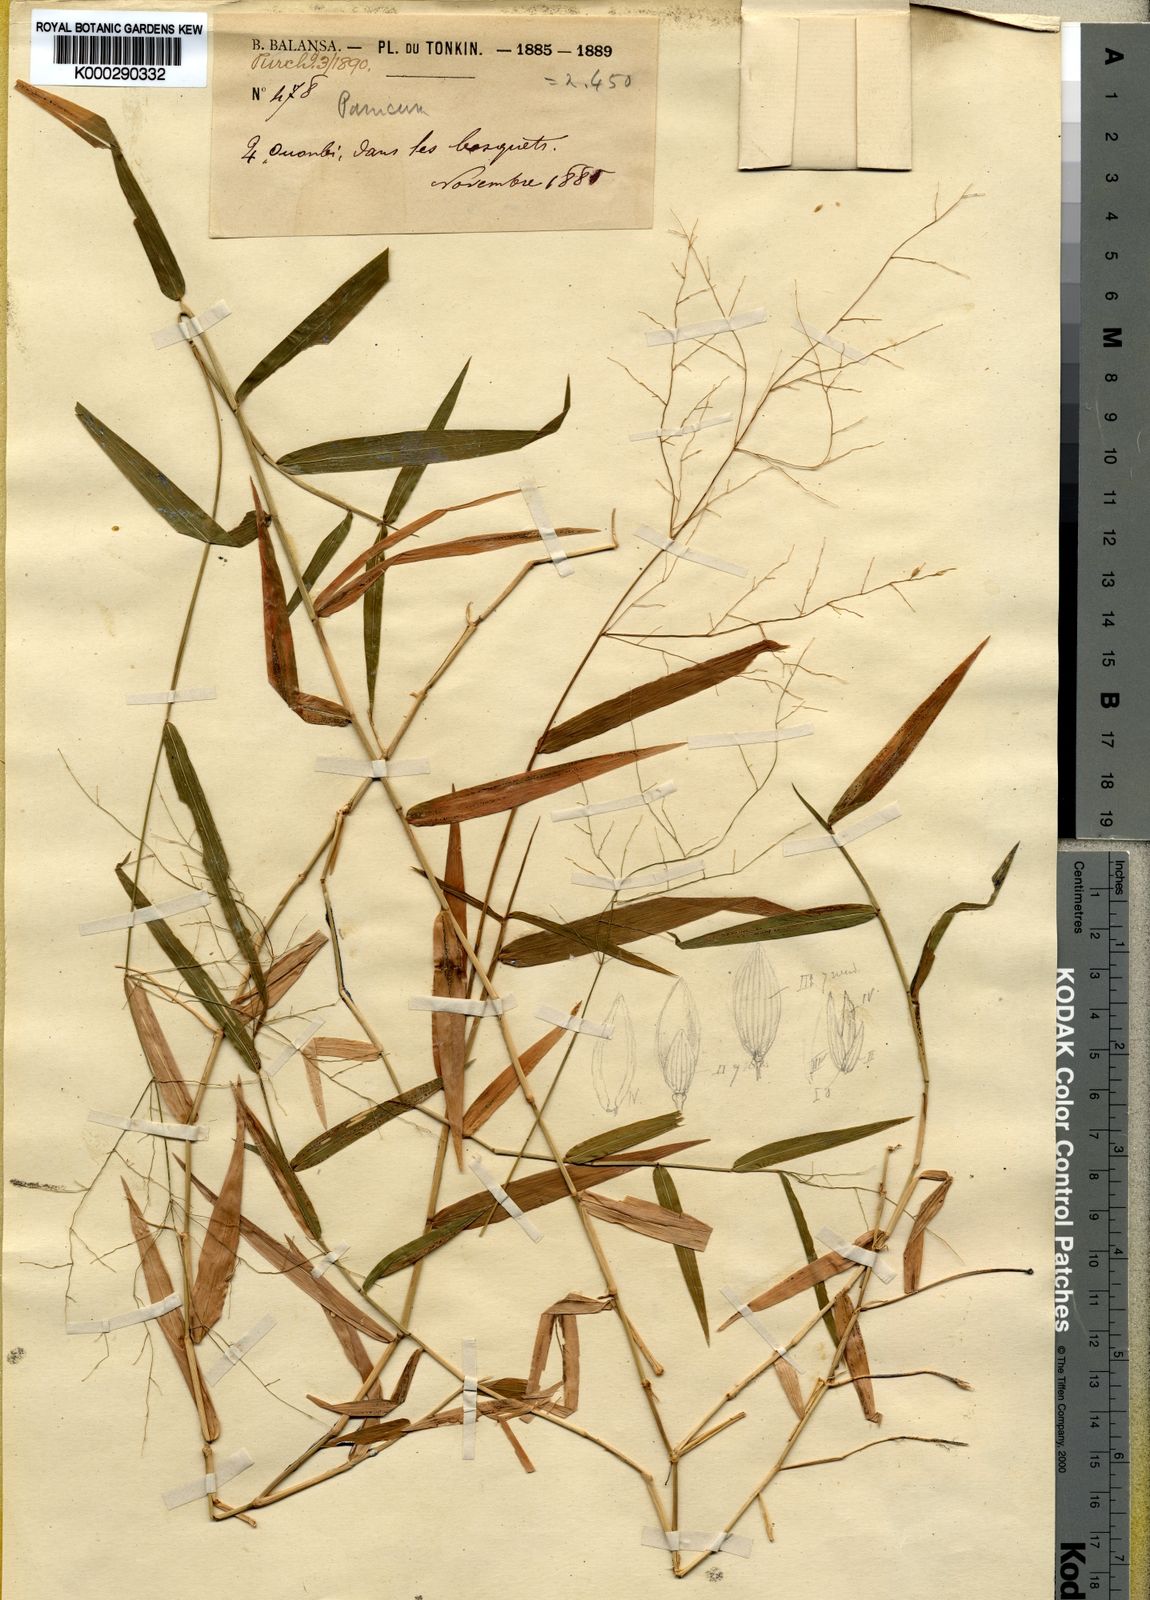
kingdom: Plantae
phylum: Tracheophyta
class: Liliopsida
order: Poales
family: Poaceae
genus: Ottochloa
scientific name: Ottochloa nodosa
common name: Slender-panic grass
